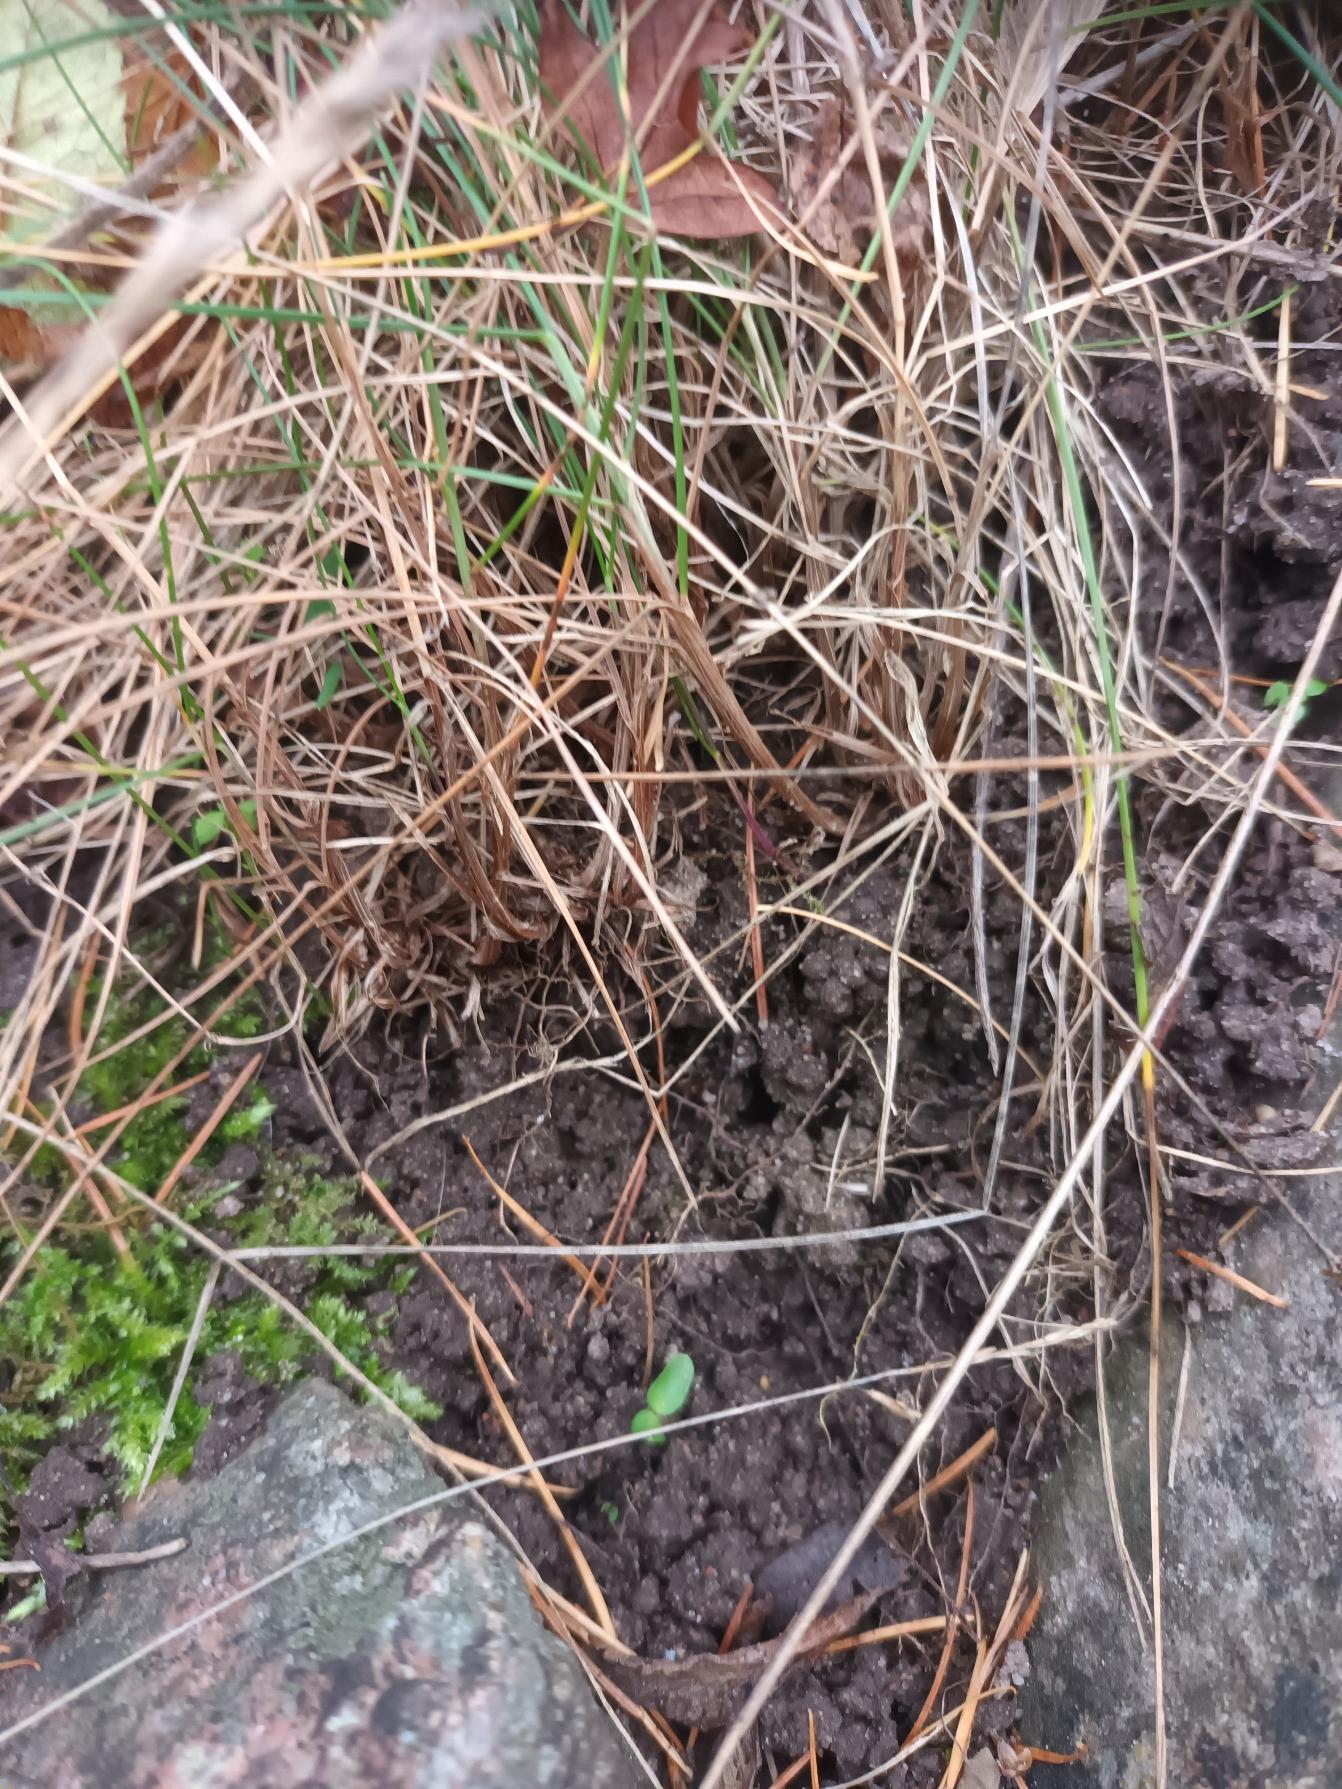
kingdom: Plantae
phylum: Tracheophyta
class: Liliopsida
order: Poales
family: Poaceae
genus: Festuca
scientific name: Festuca rubra
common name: Rød svingel
